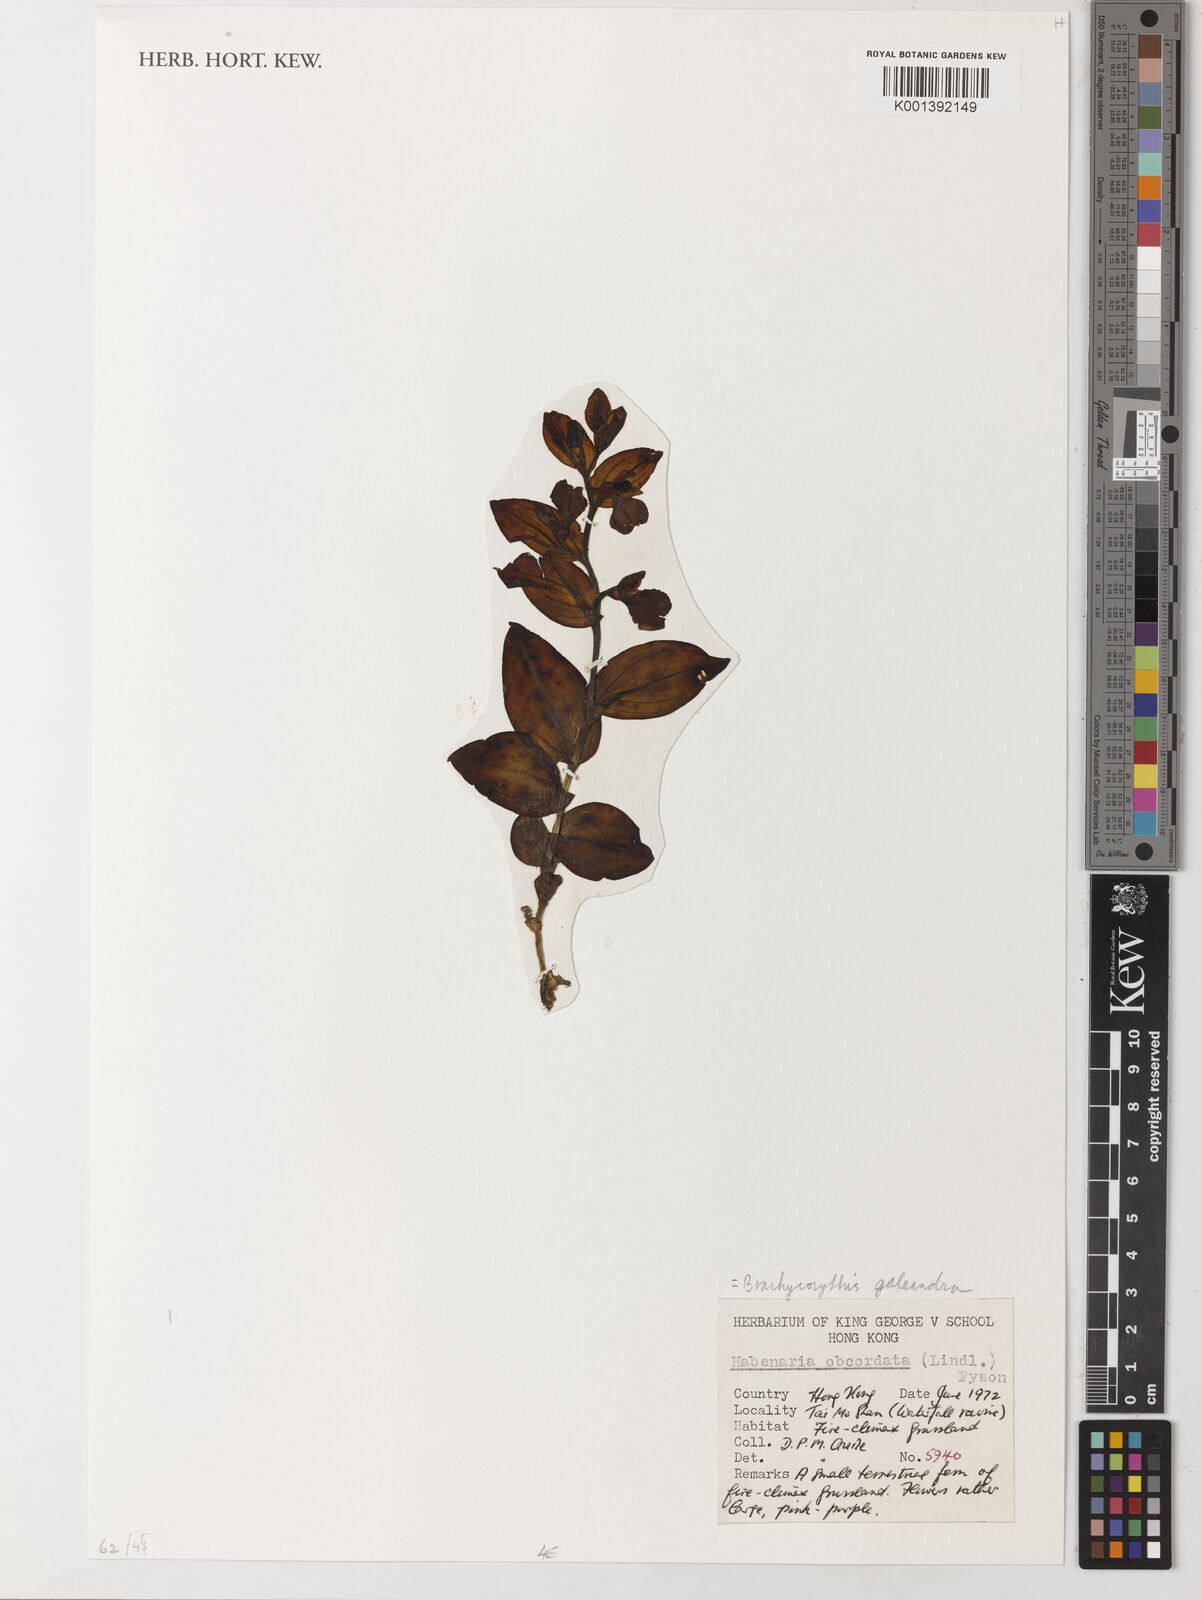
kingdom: Plantae
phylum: Tracheophyta
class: Liliopsida
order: Asparagales
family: Orchidaceae
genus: Brachycorythis
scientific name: Brachycorythis obcordata
